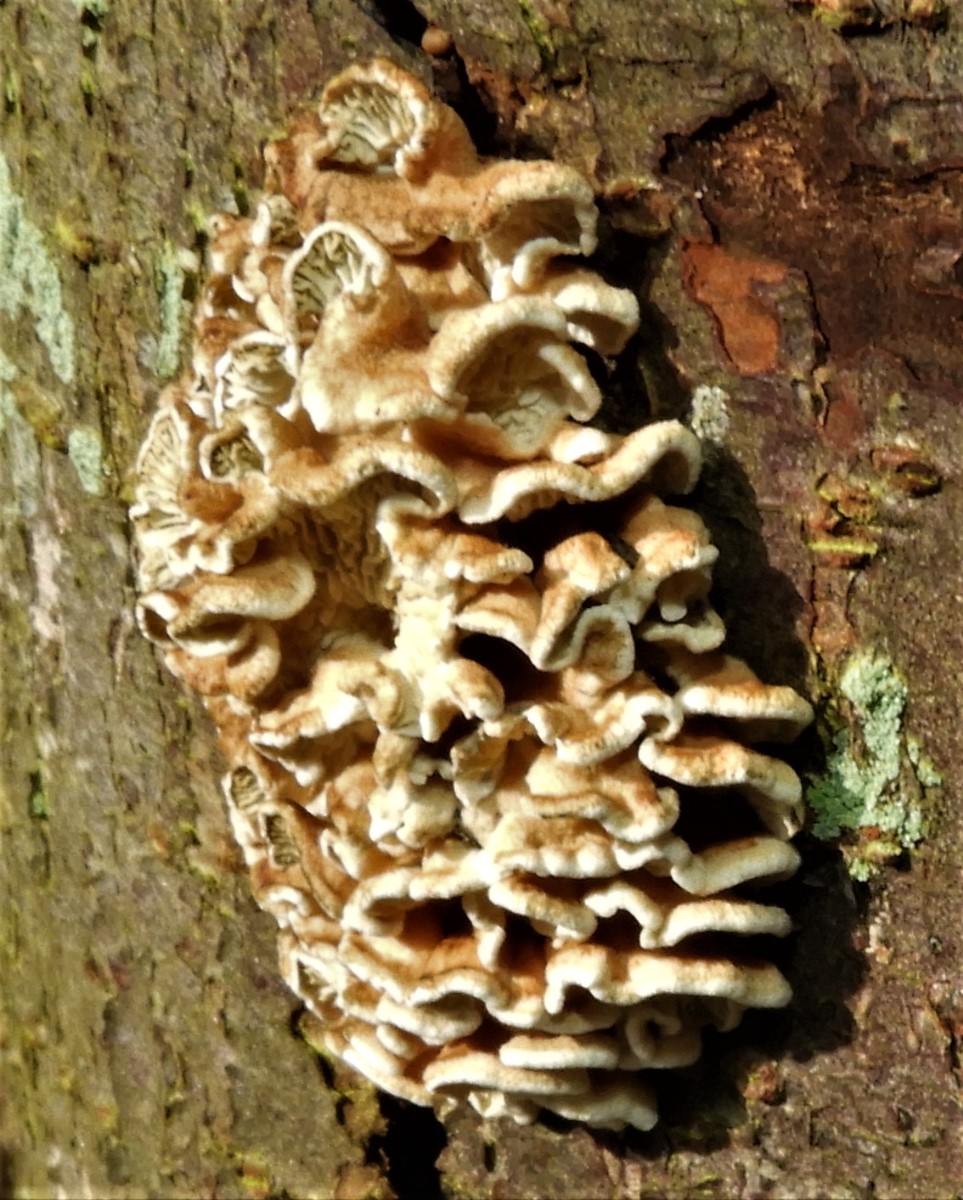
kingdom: Fungi
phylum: Basidiomycota
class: Agaricomycetes
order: Amylocorticiales
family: Amylocorticiaceae
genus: Plicaturopsis
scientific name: Plicaturopsis crispa
